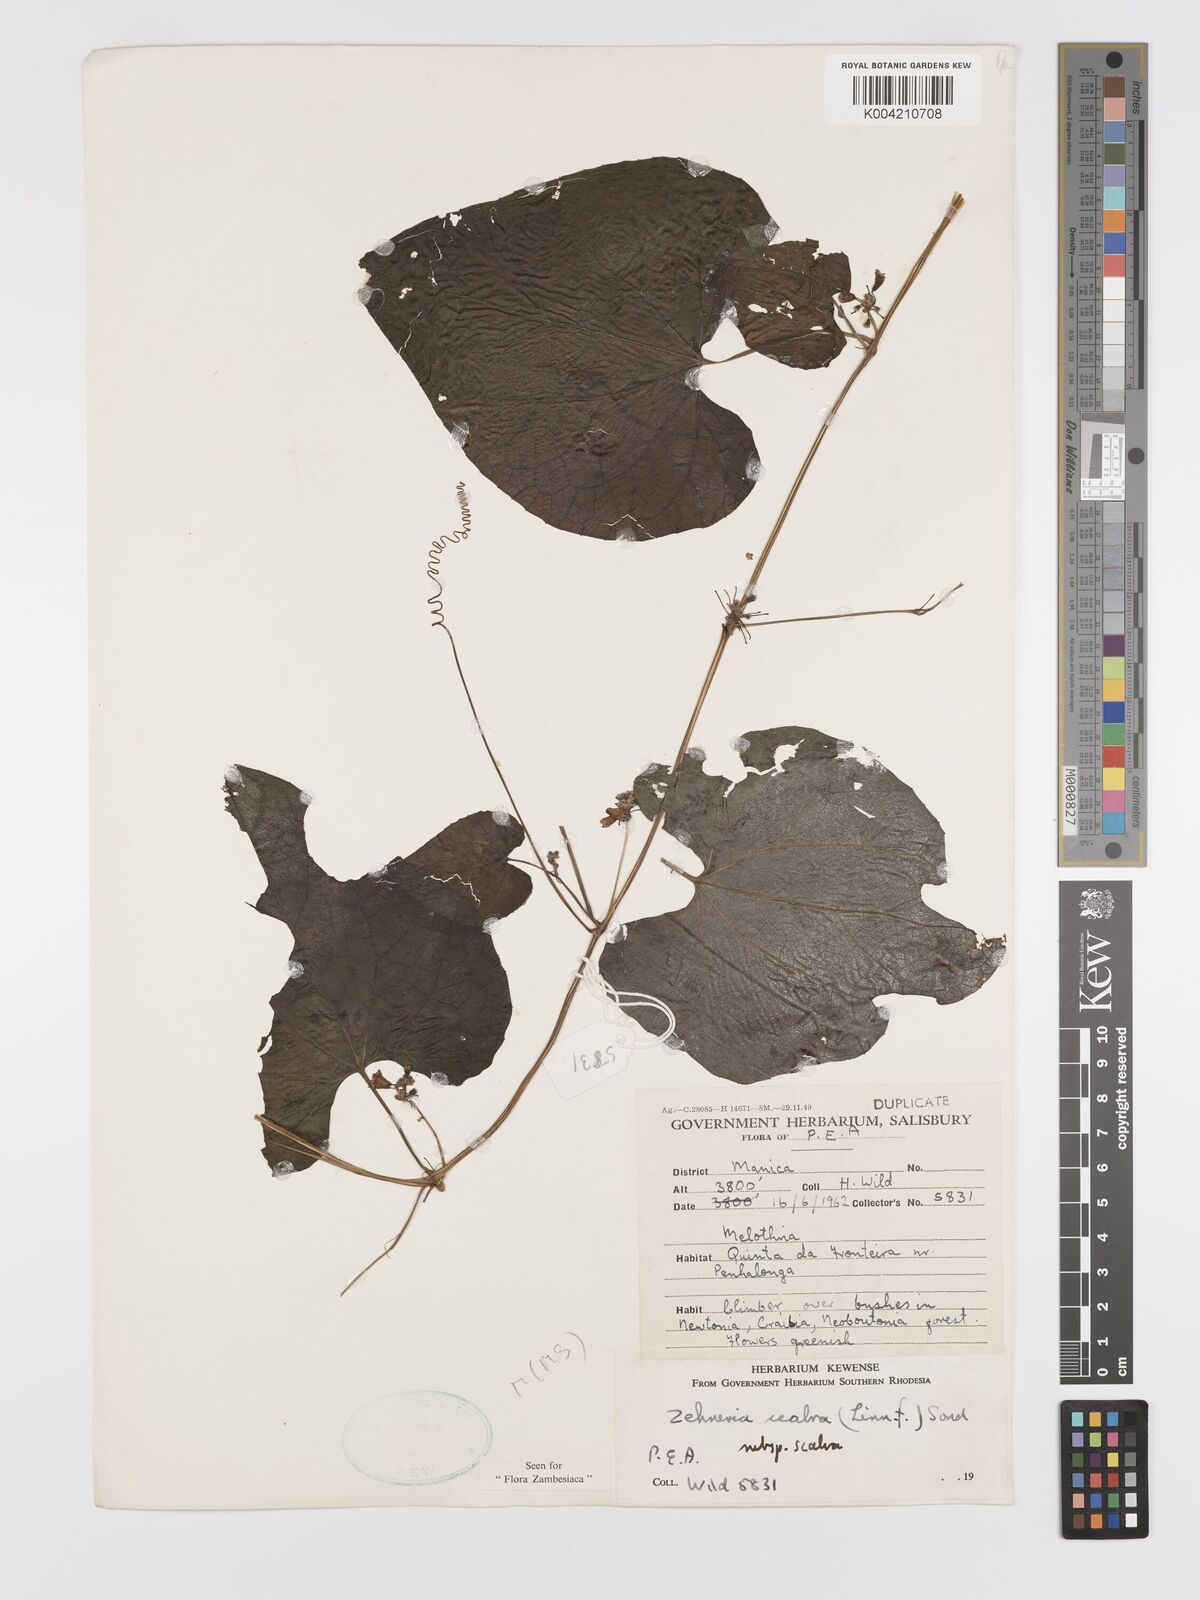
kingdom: Plantae
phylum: Tracheophyta
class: Magnoliopsida
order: Cucurbitales
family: Cucurbitaceae
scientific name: Cucurbitaceae
